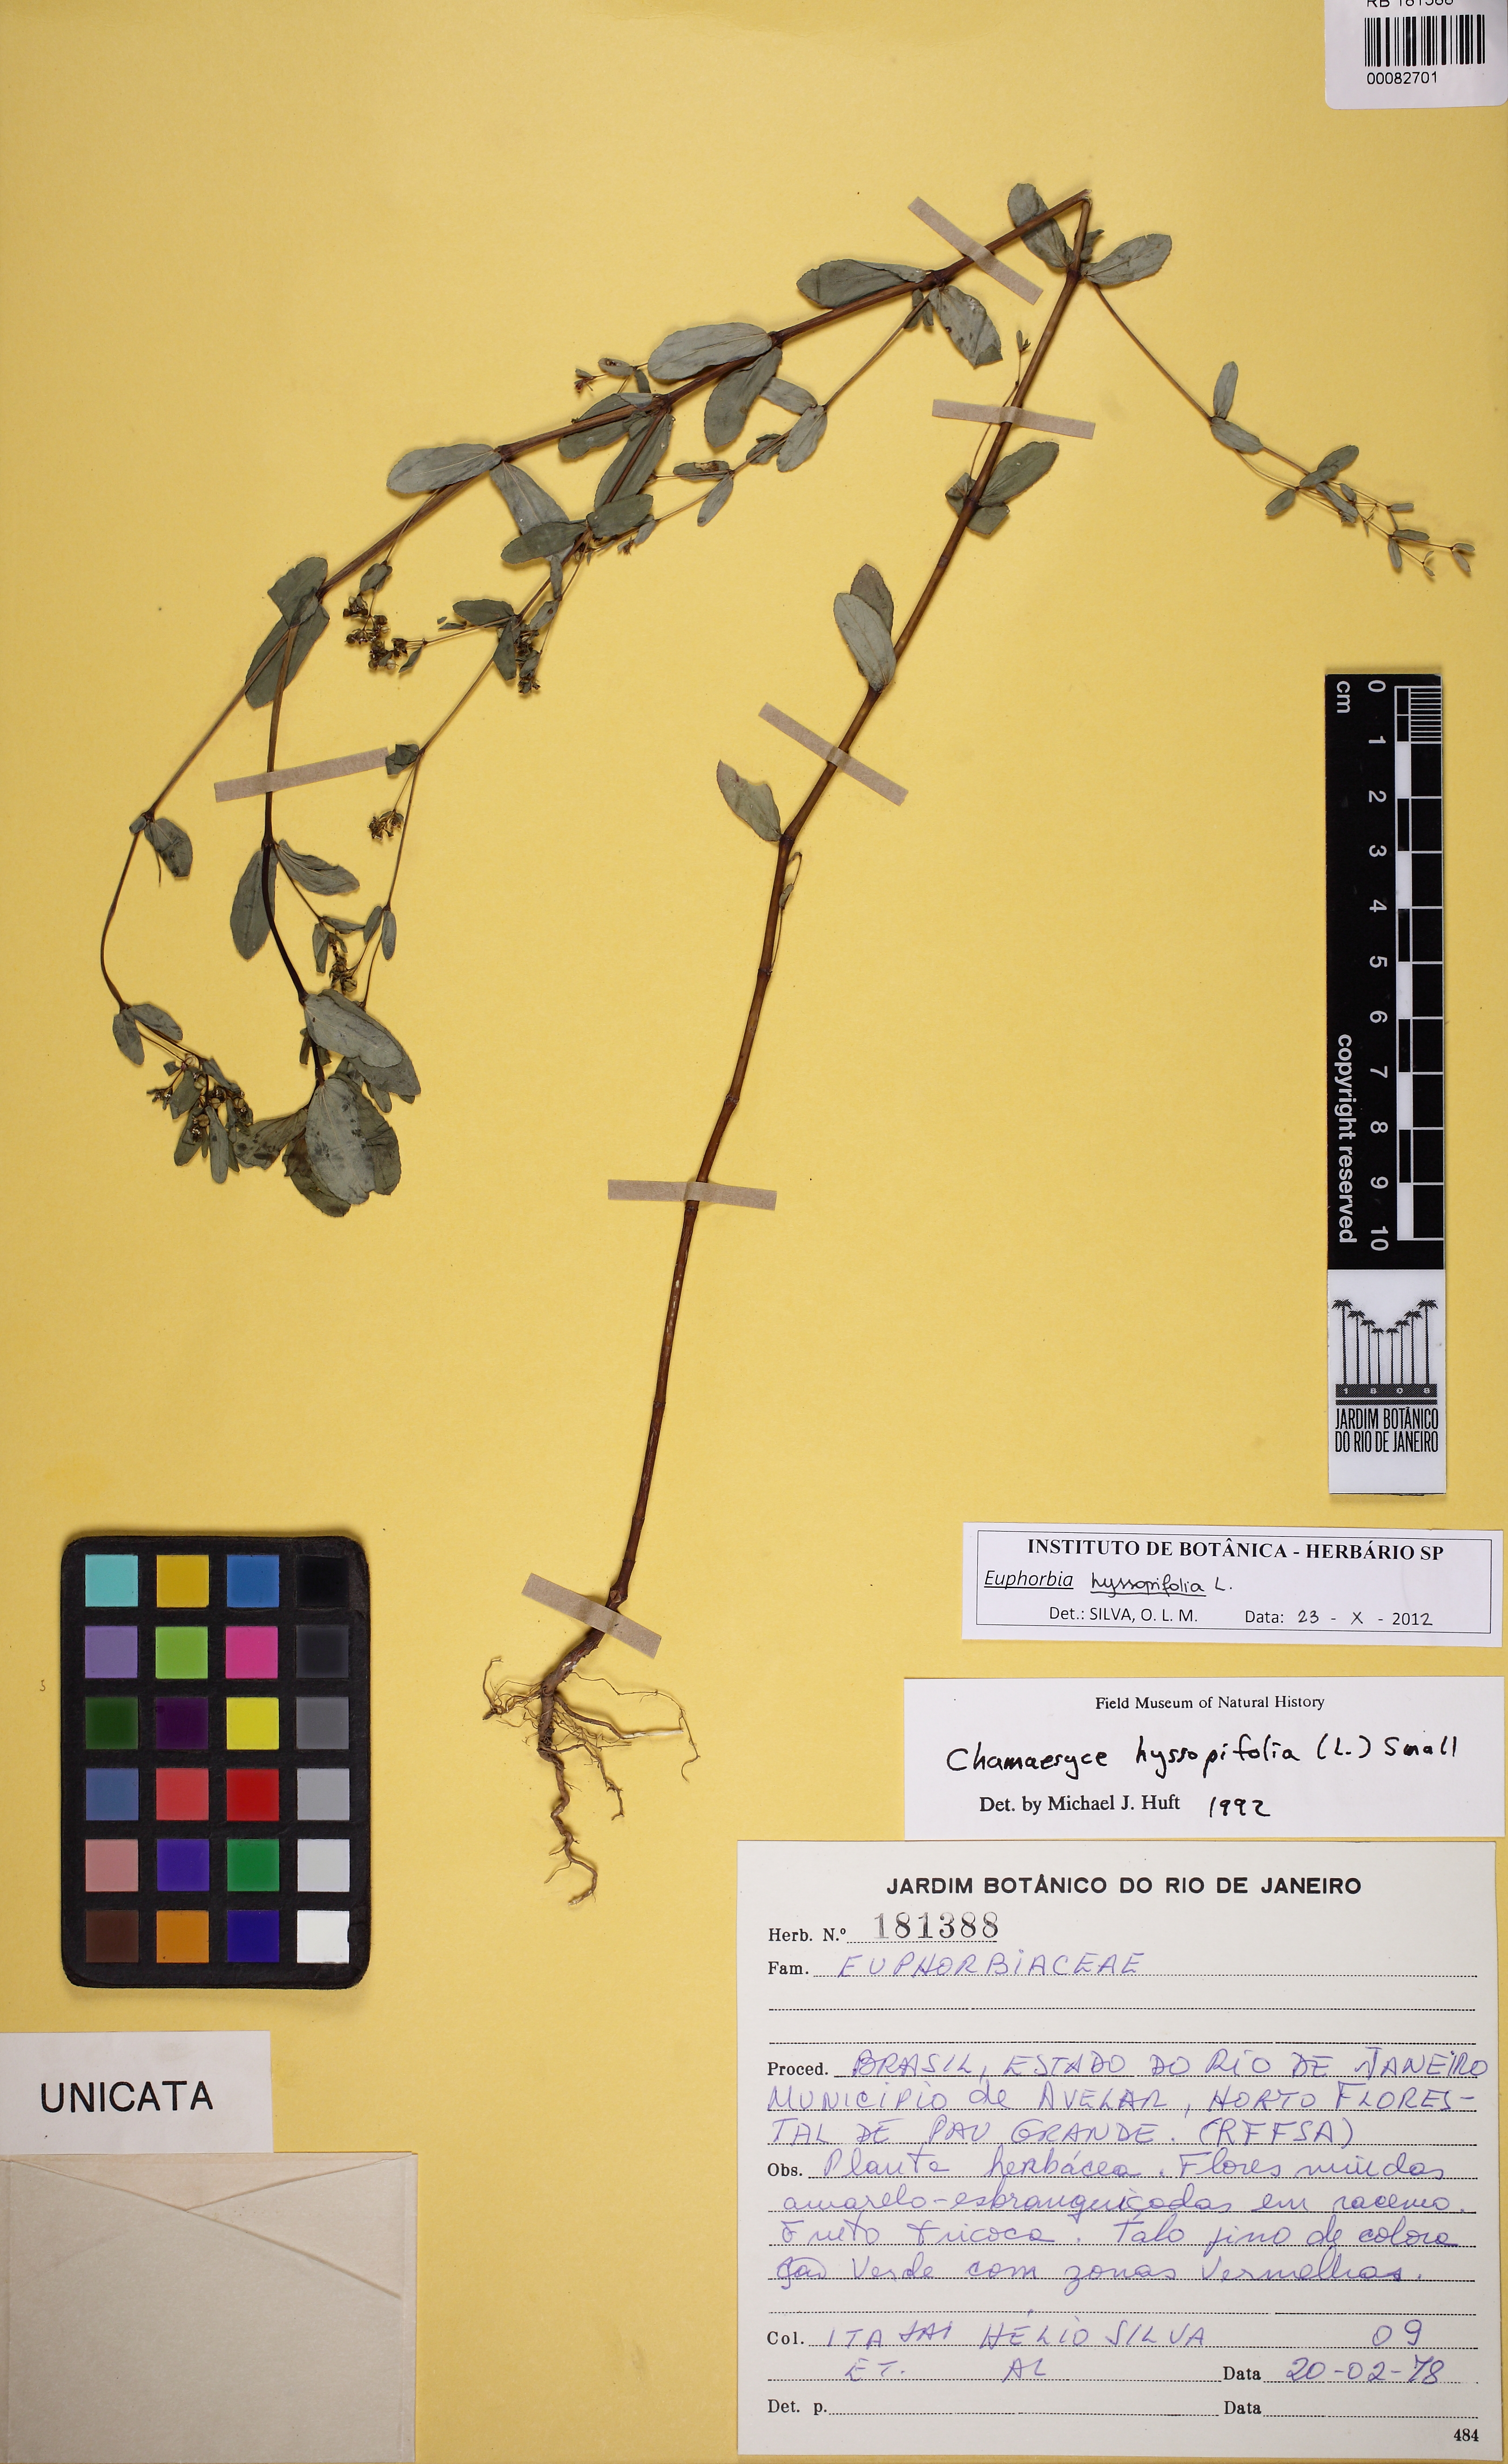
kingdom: Plantae
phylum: Tracheophyta
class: Magnoliopsida
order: Malpighiales
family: Euphorbiaceae
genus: Euphorbia
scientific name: Euphorbia hyssopifolia
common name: Hyssopleaf sandmat
